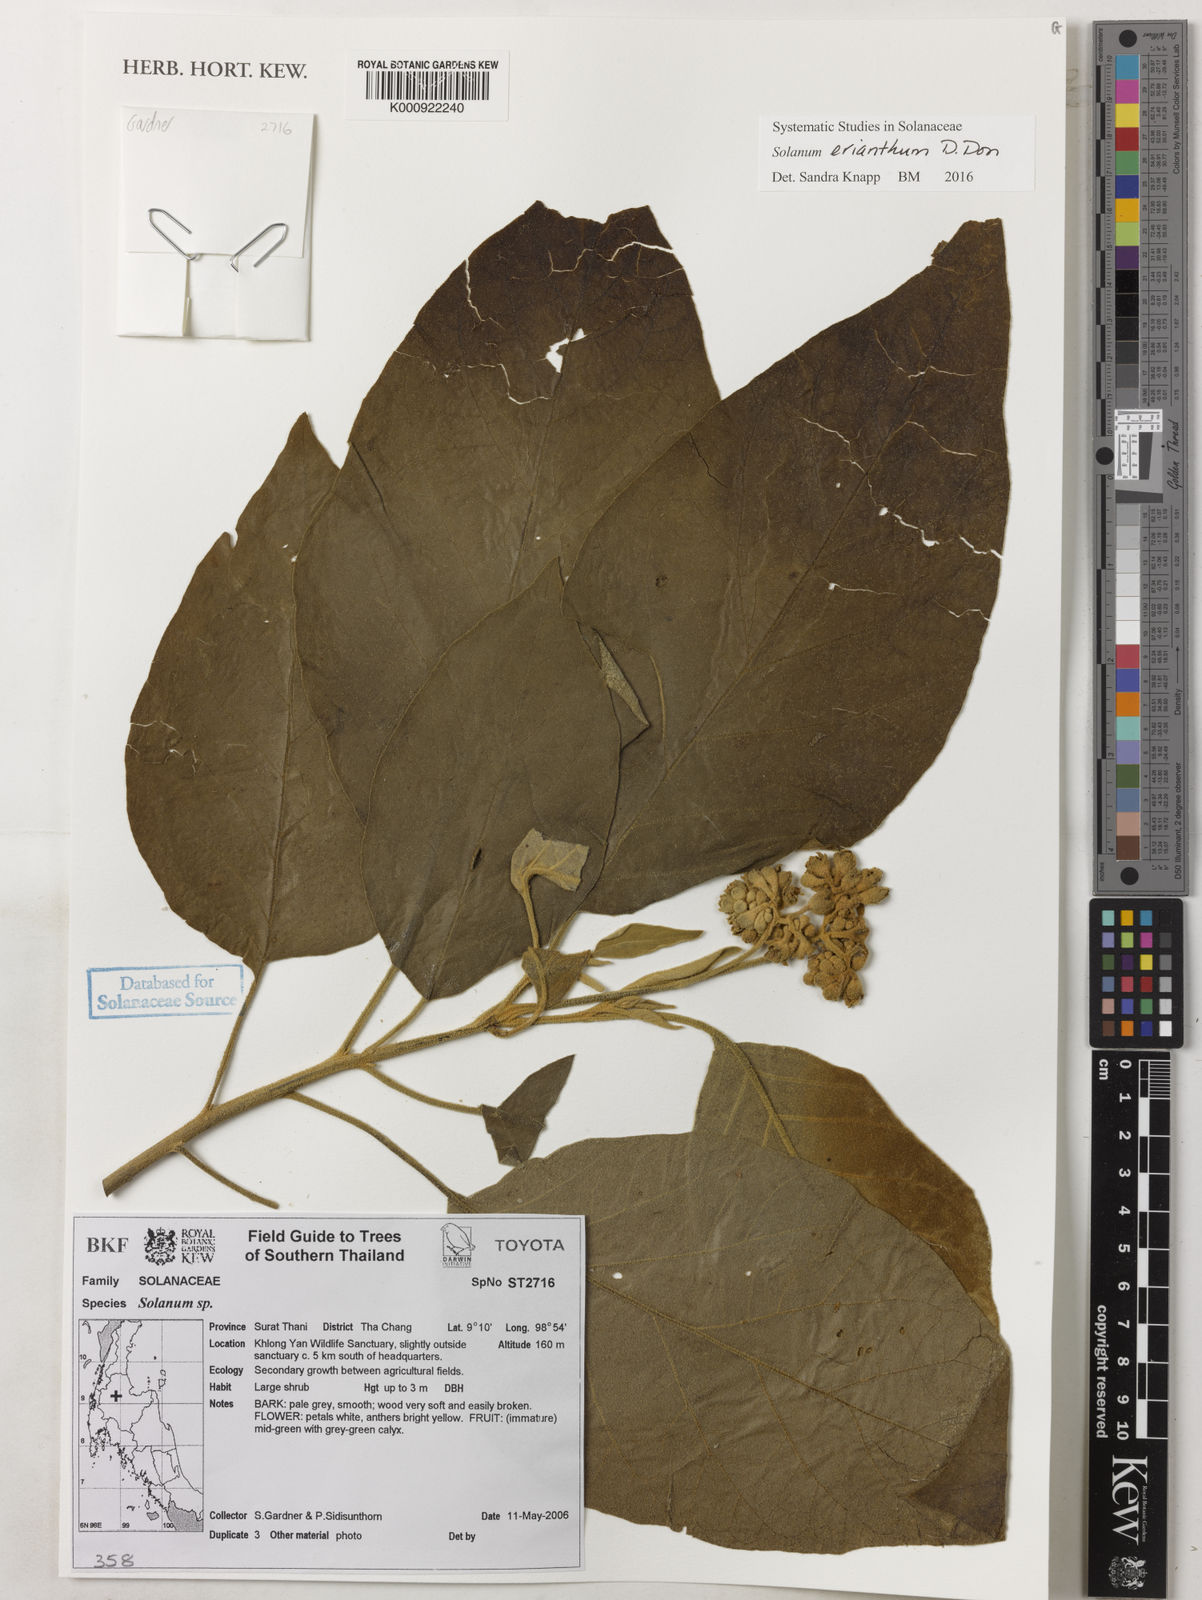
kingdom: Plantae
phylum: Tracheophyta
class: Magnoliopsida
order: Solanales
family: Solanaceae
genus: Solanum
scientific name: Solanum erianthum
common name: Tobacco-tree
